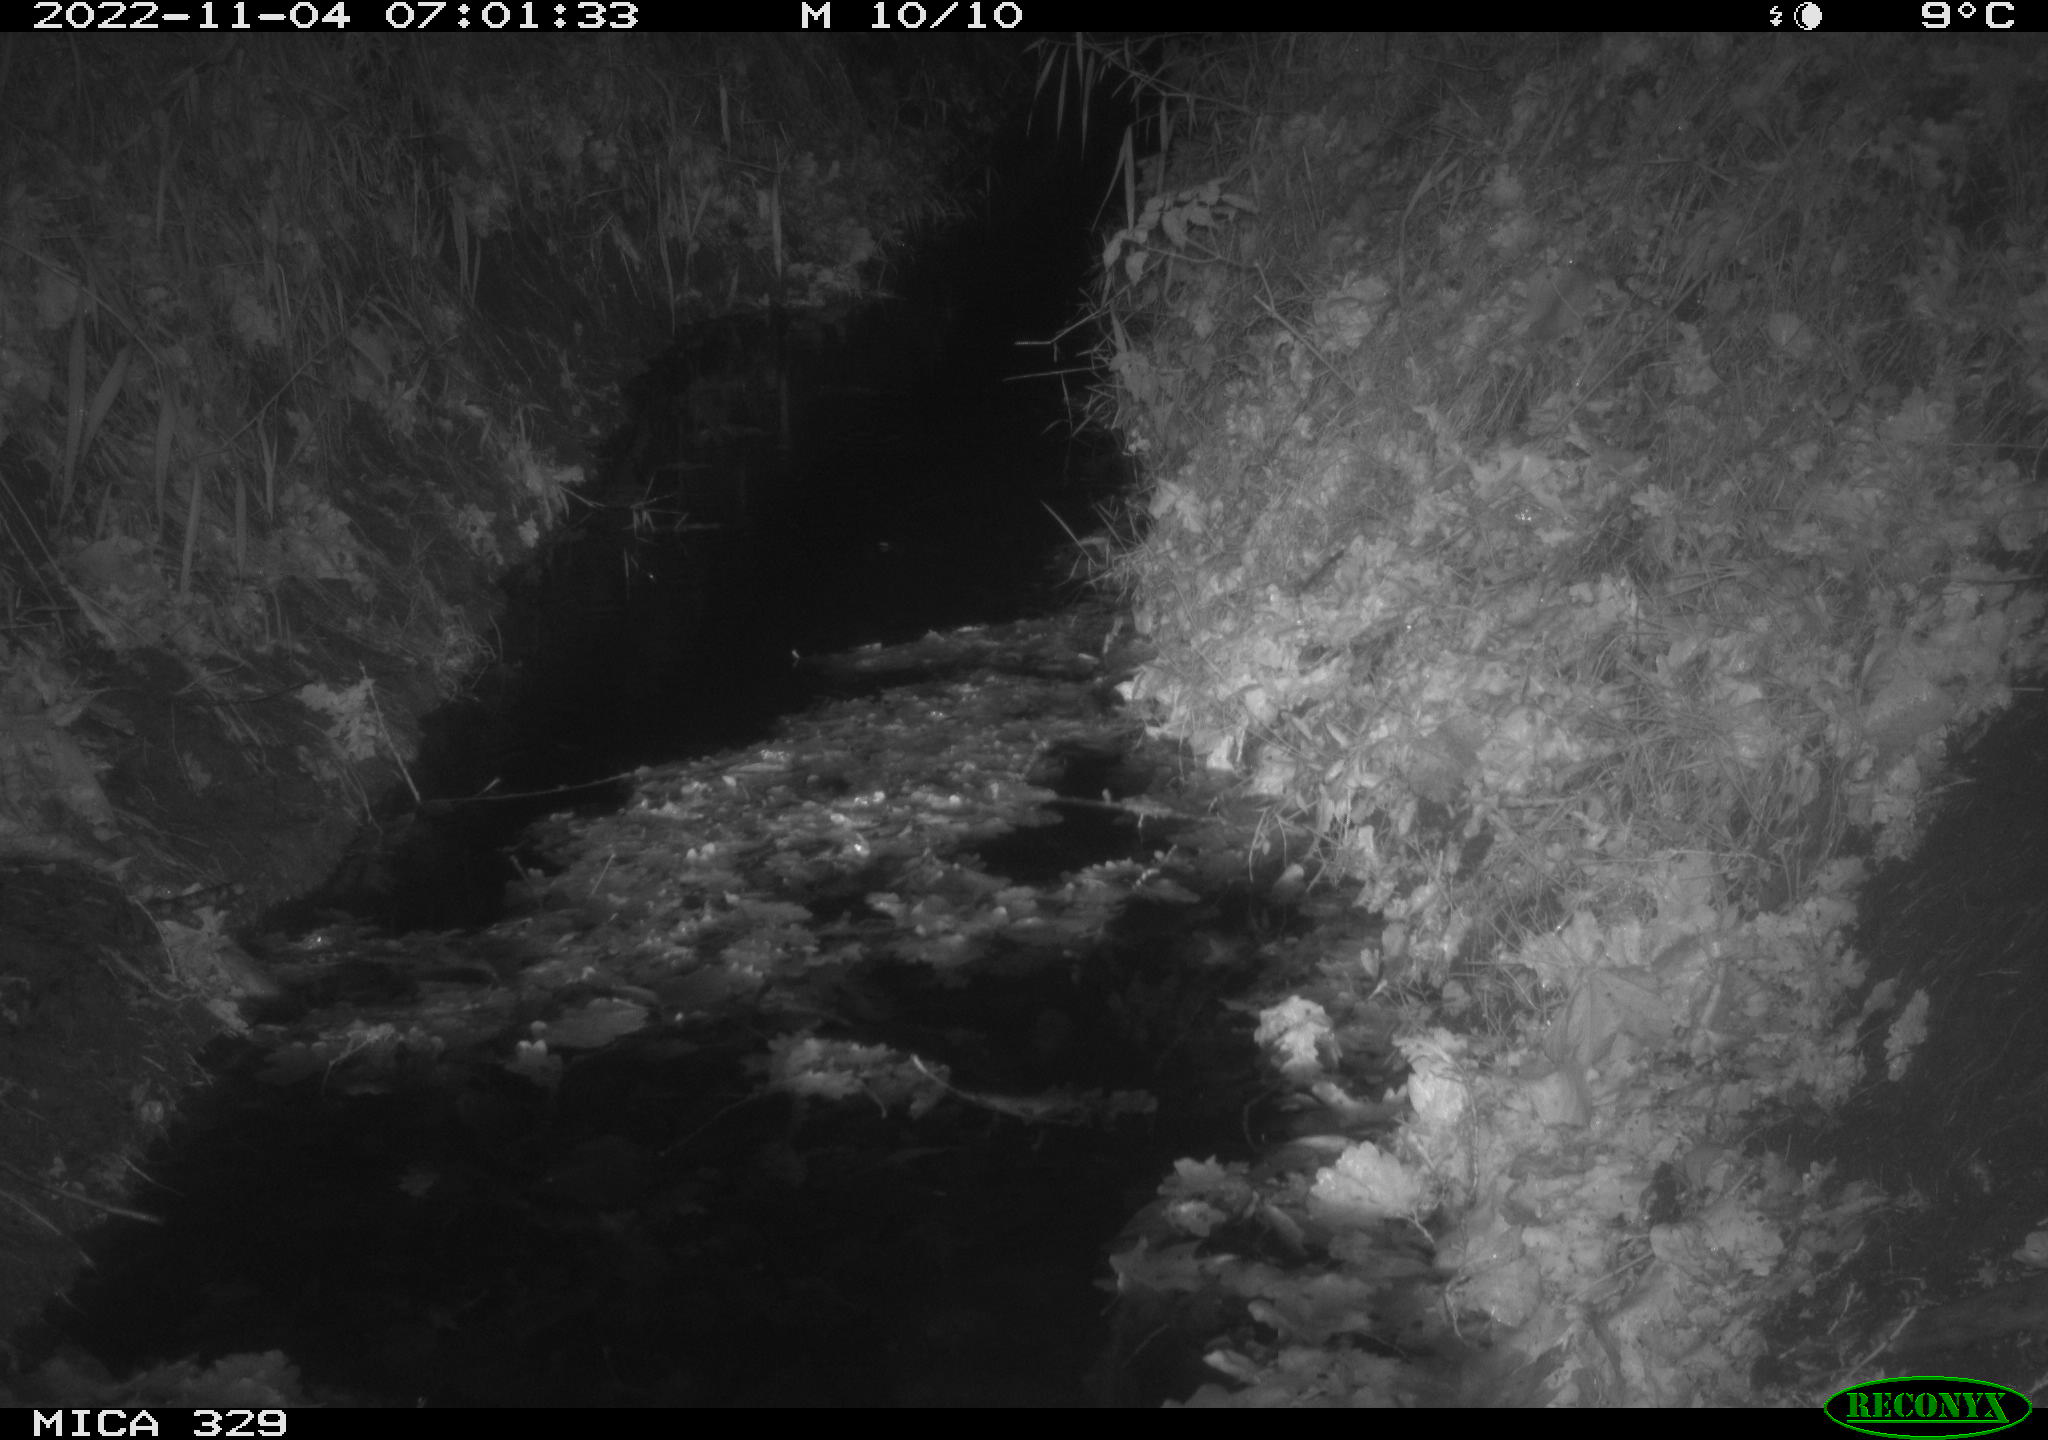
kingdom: Animalia
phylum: Chordata
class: Mammalia
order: Rodentia
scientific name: Rodentia
